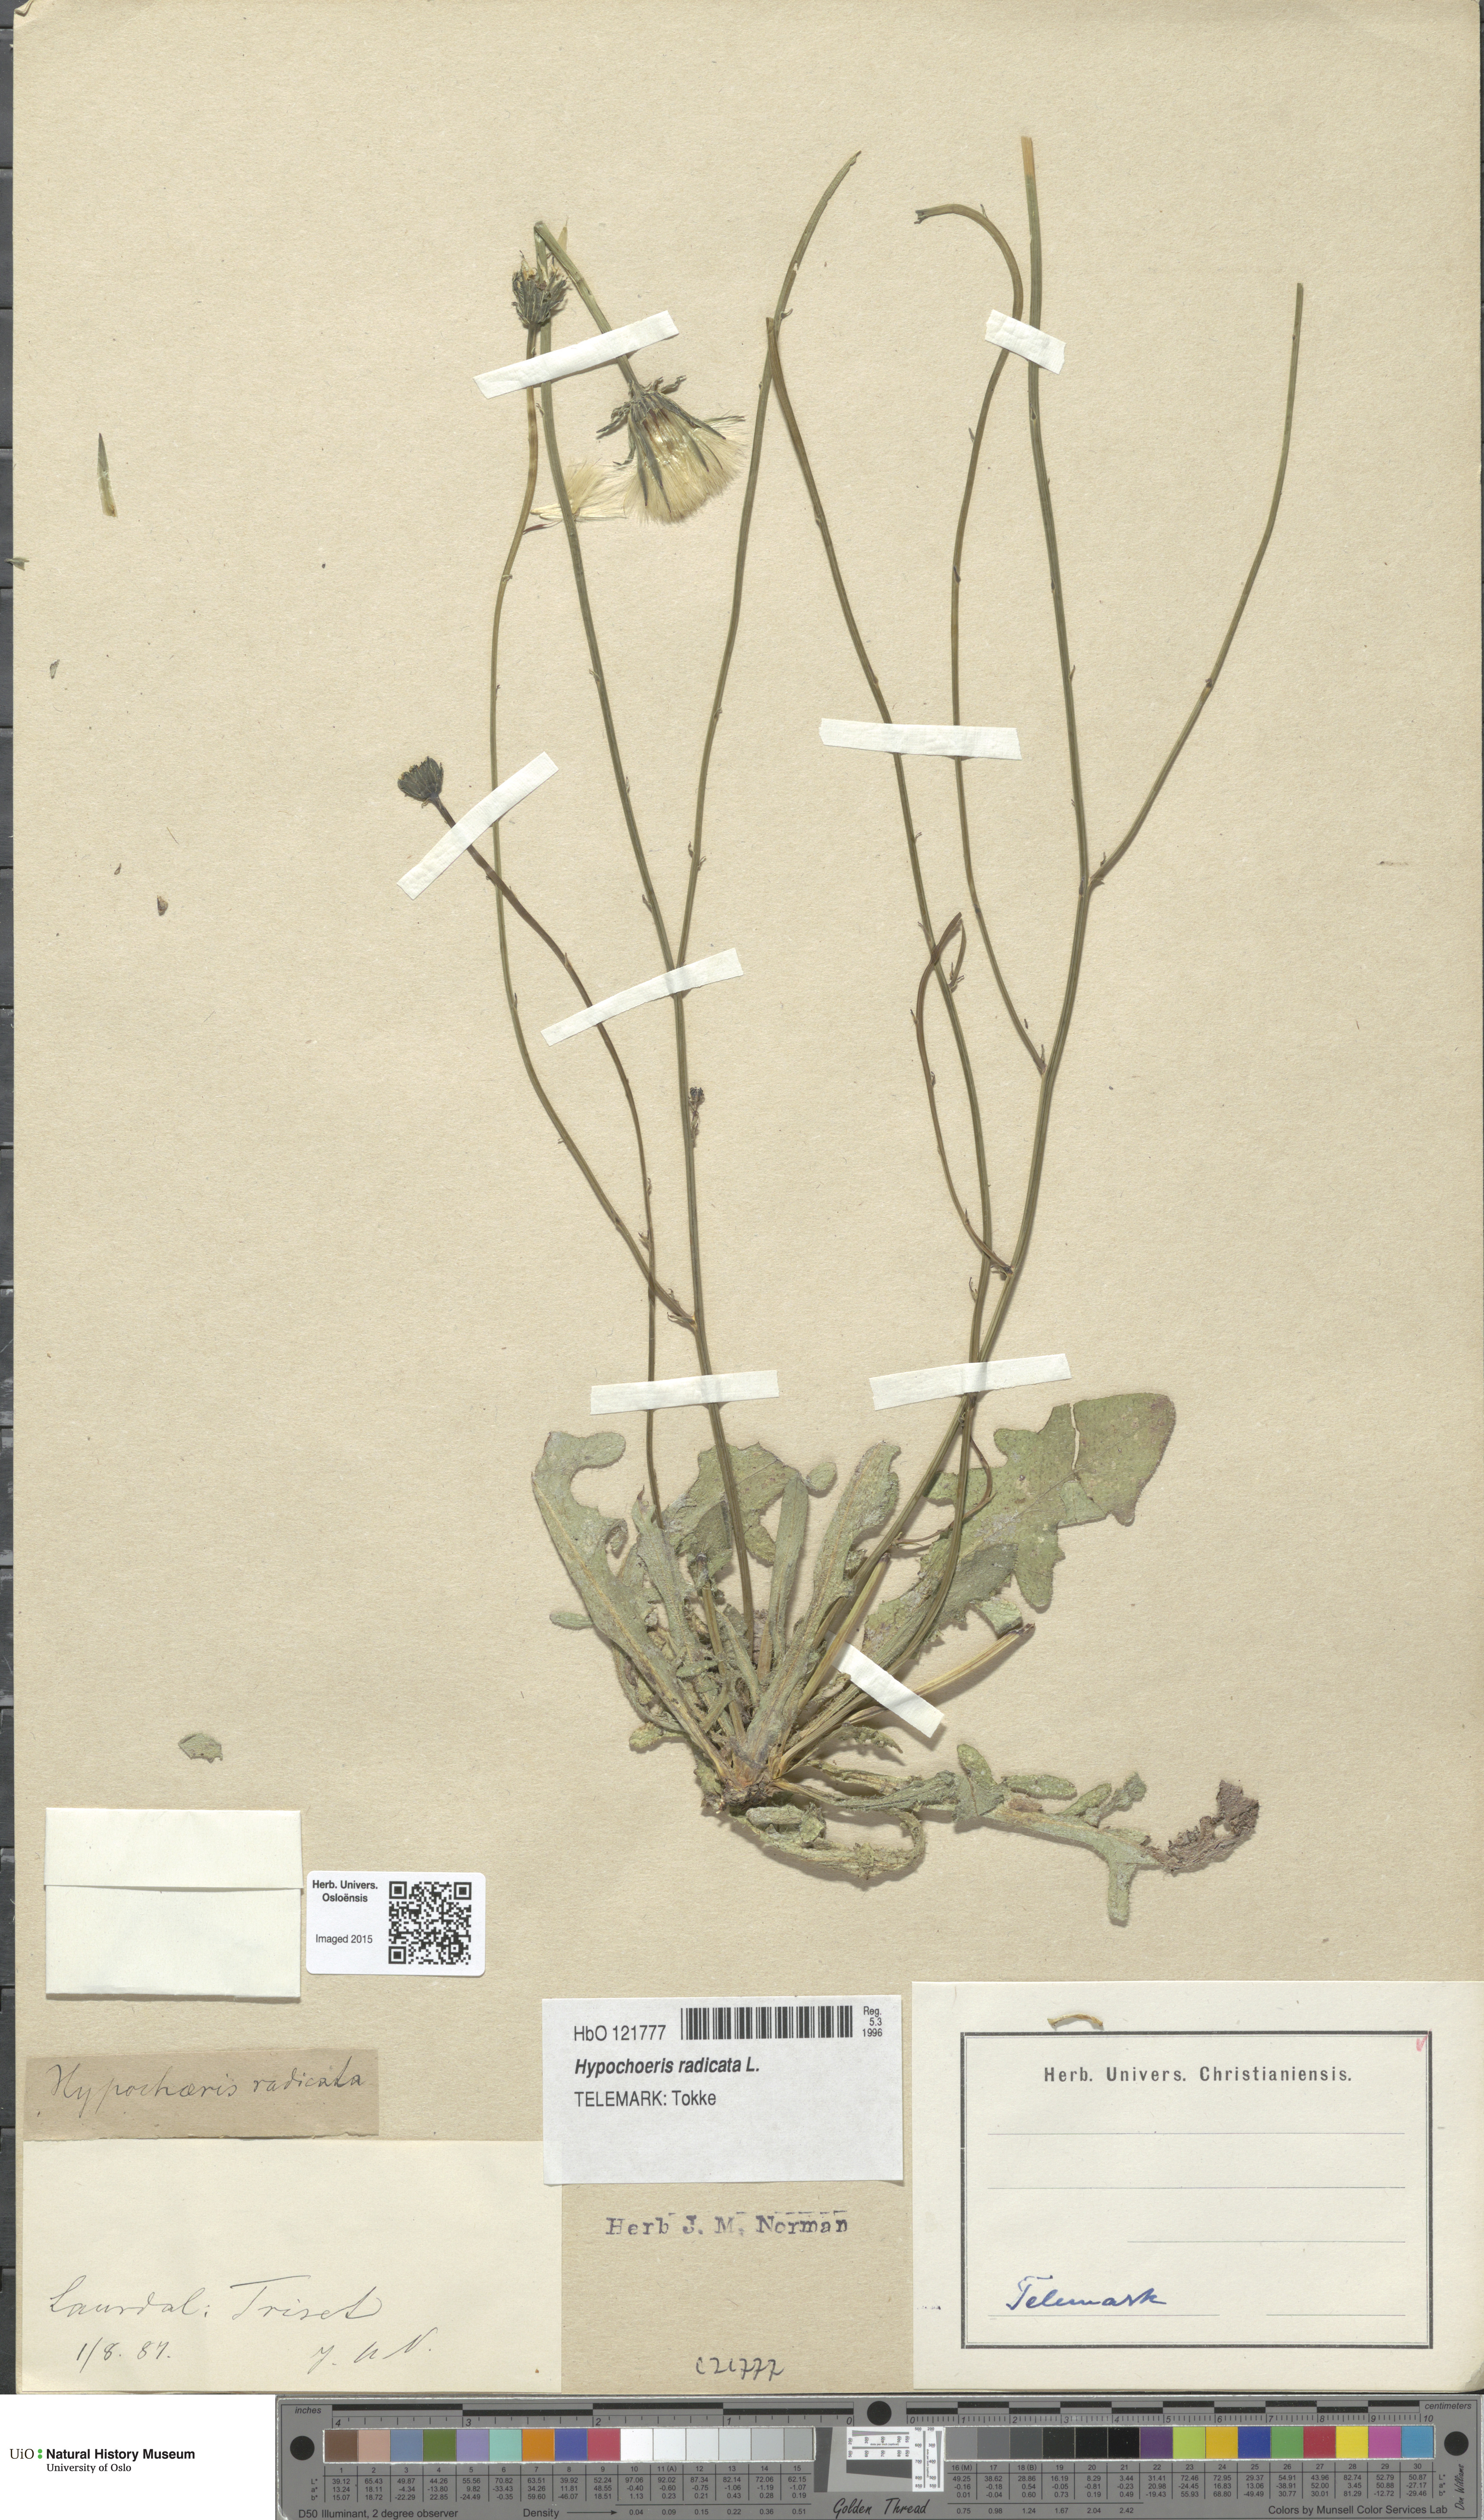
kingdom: Plantae
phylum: Tracheophyta
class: Magnoliopsida
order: Asterales
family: Asteraceae
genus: Hypochaeris
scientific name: Hypochaeris radicata
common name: Flatweed
